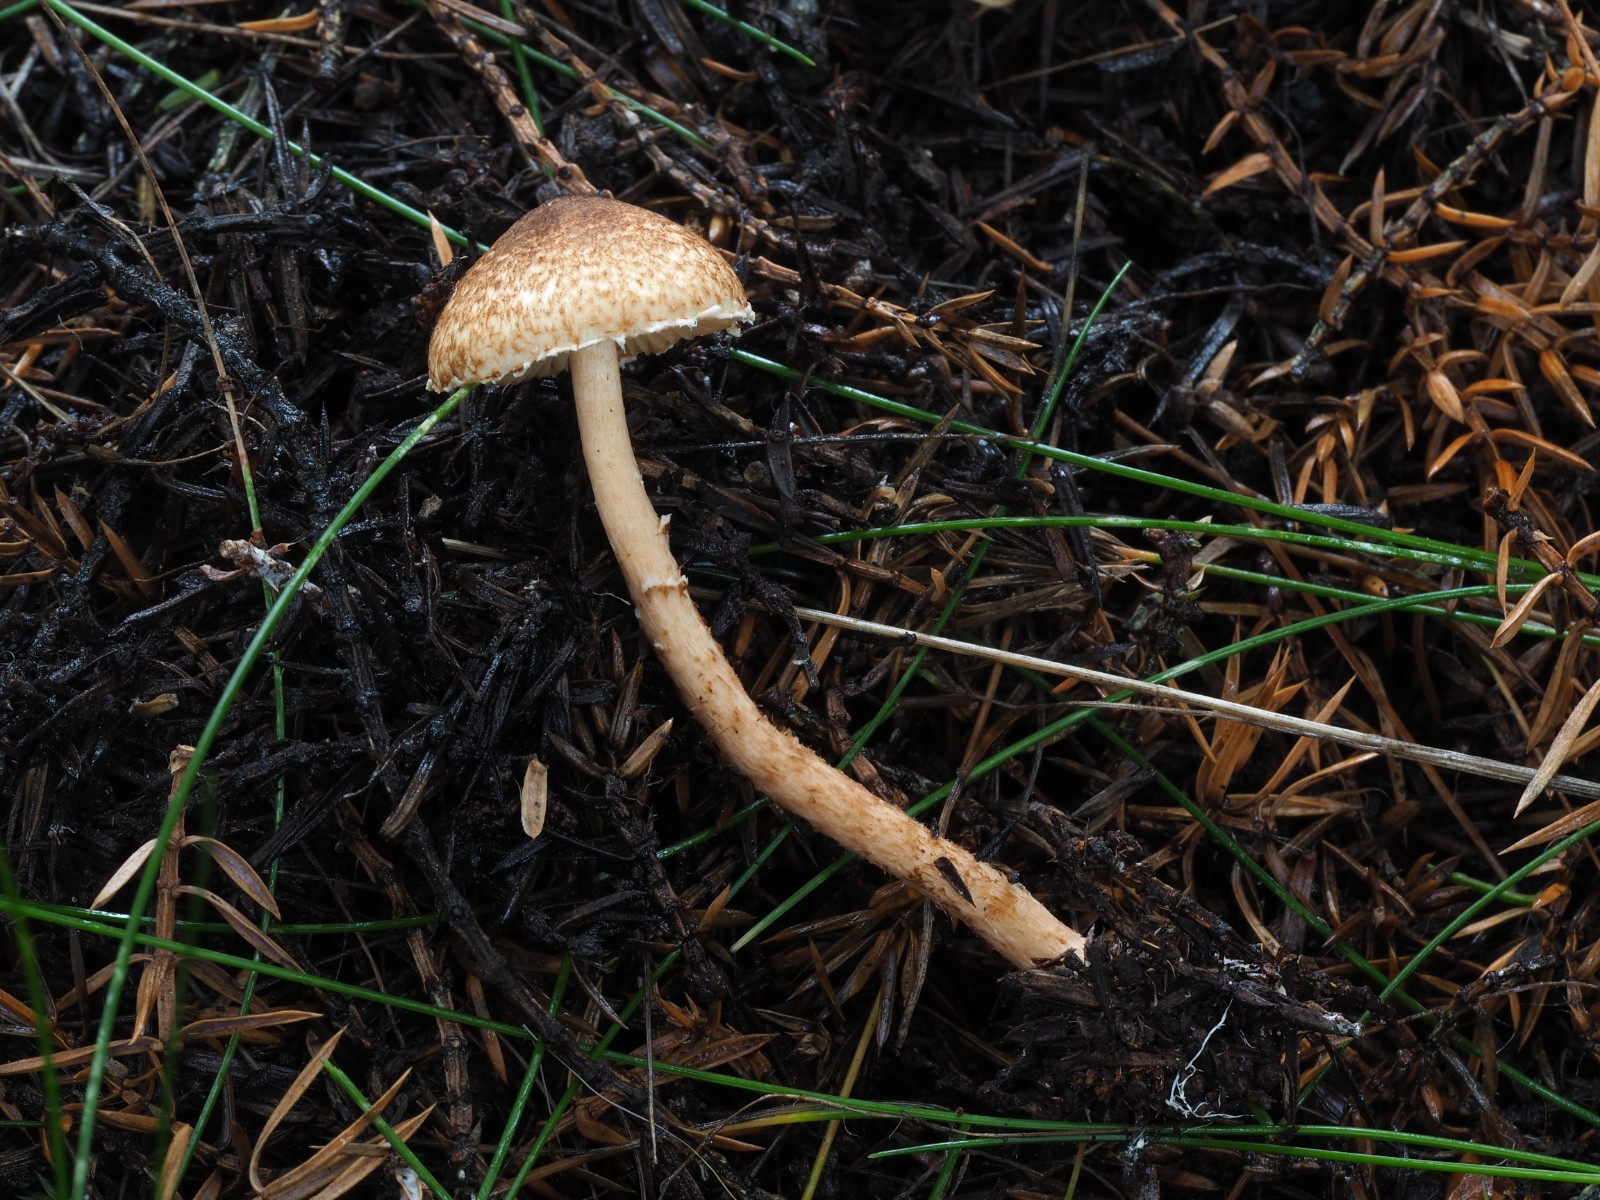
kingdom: Fungi
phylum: Basidiomycota
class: Agaricomycetes
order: Agaricales
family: Agaricaceae
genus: Lepiota
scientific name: Lepiota castanea
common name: kastaniebrun parasolhat
